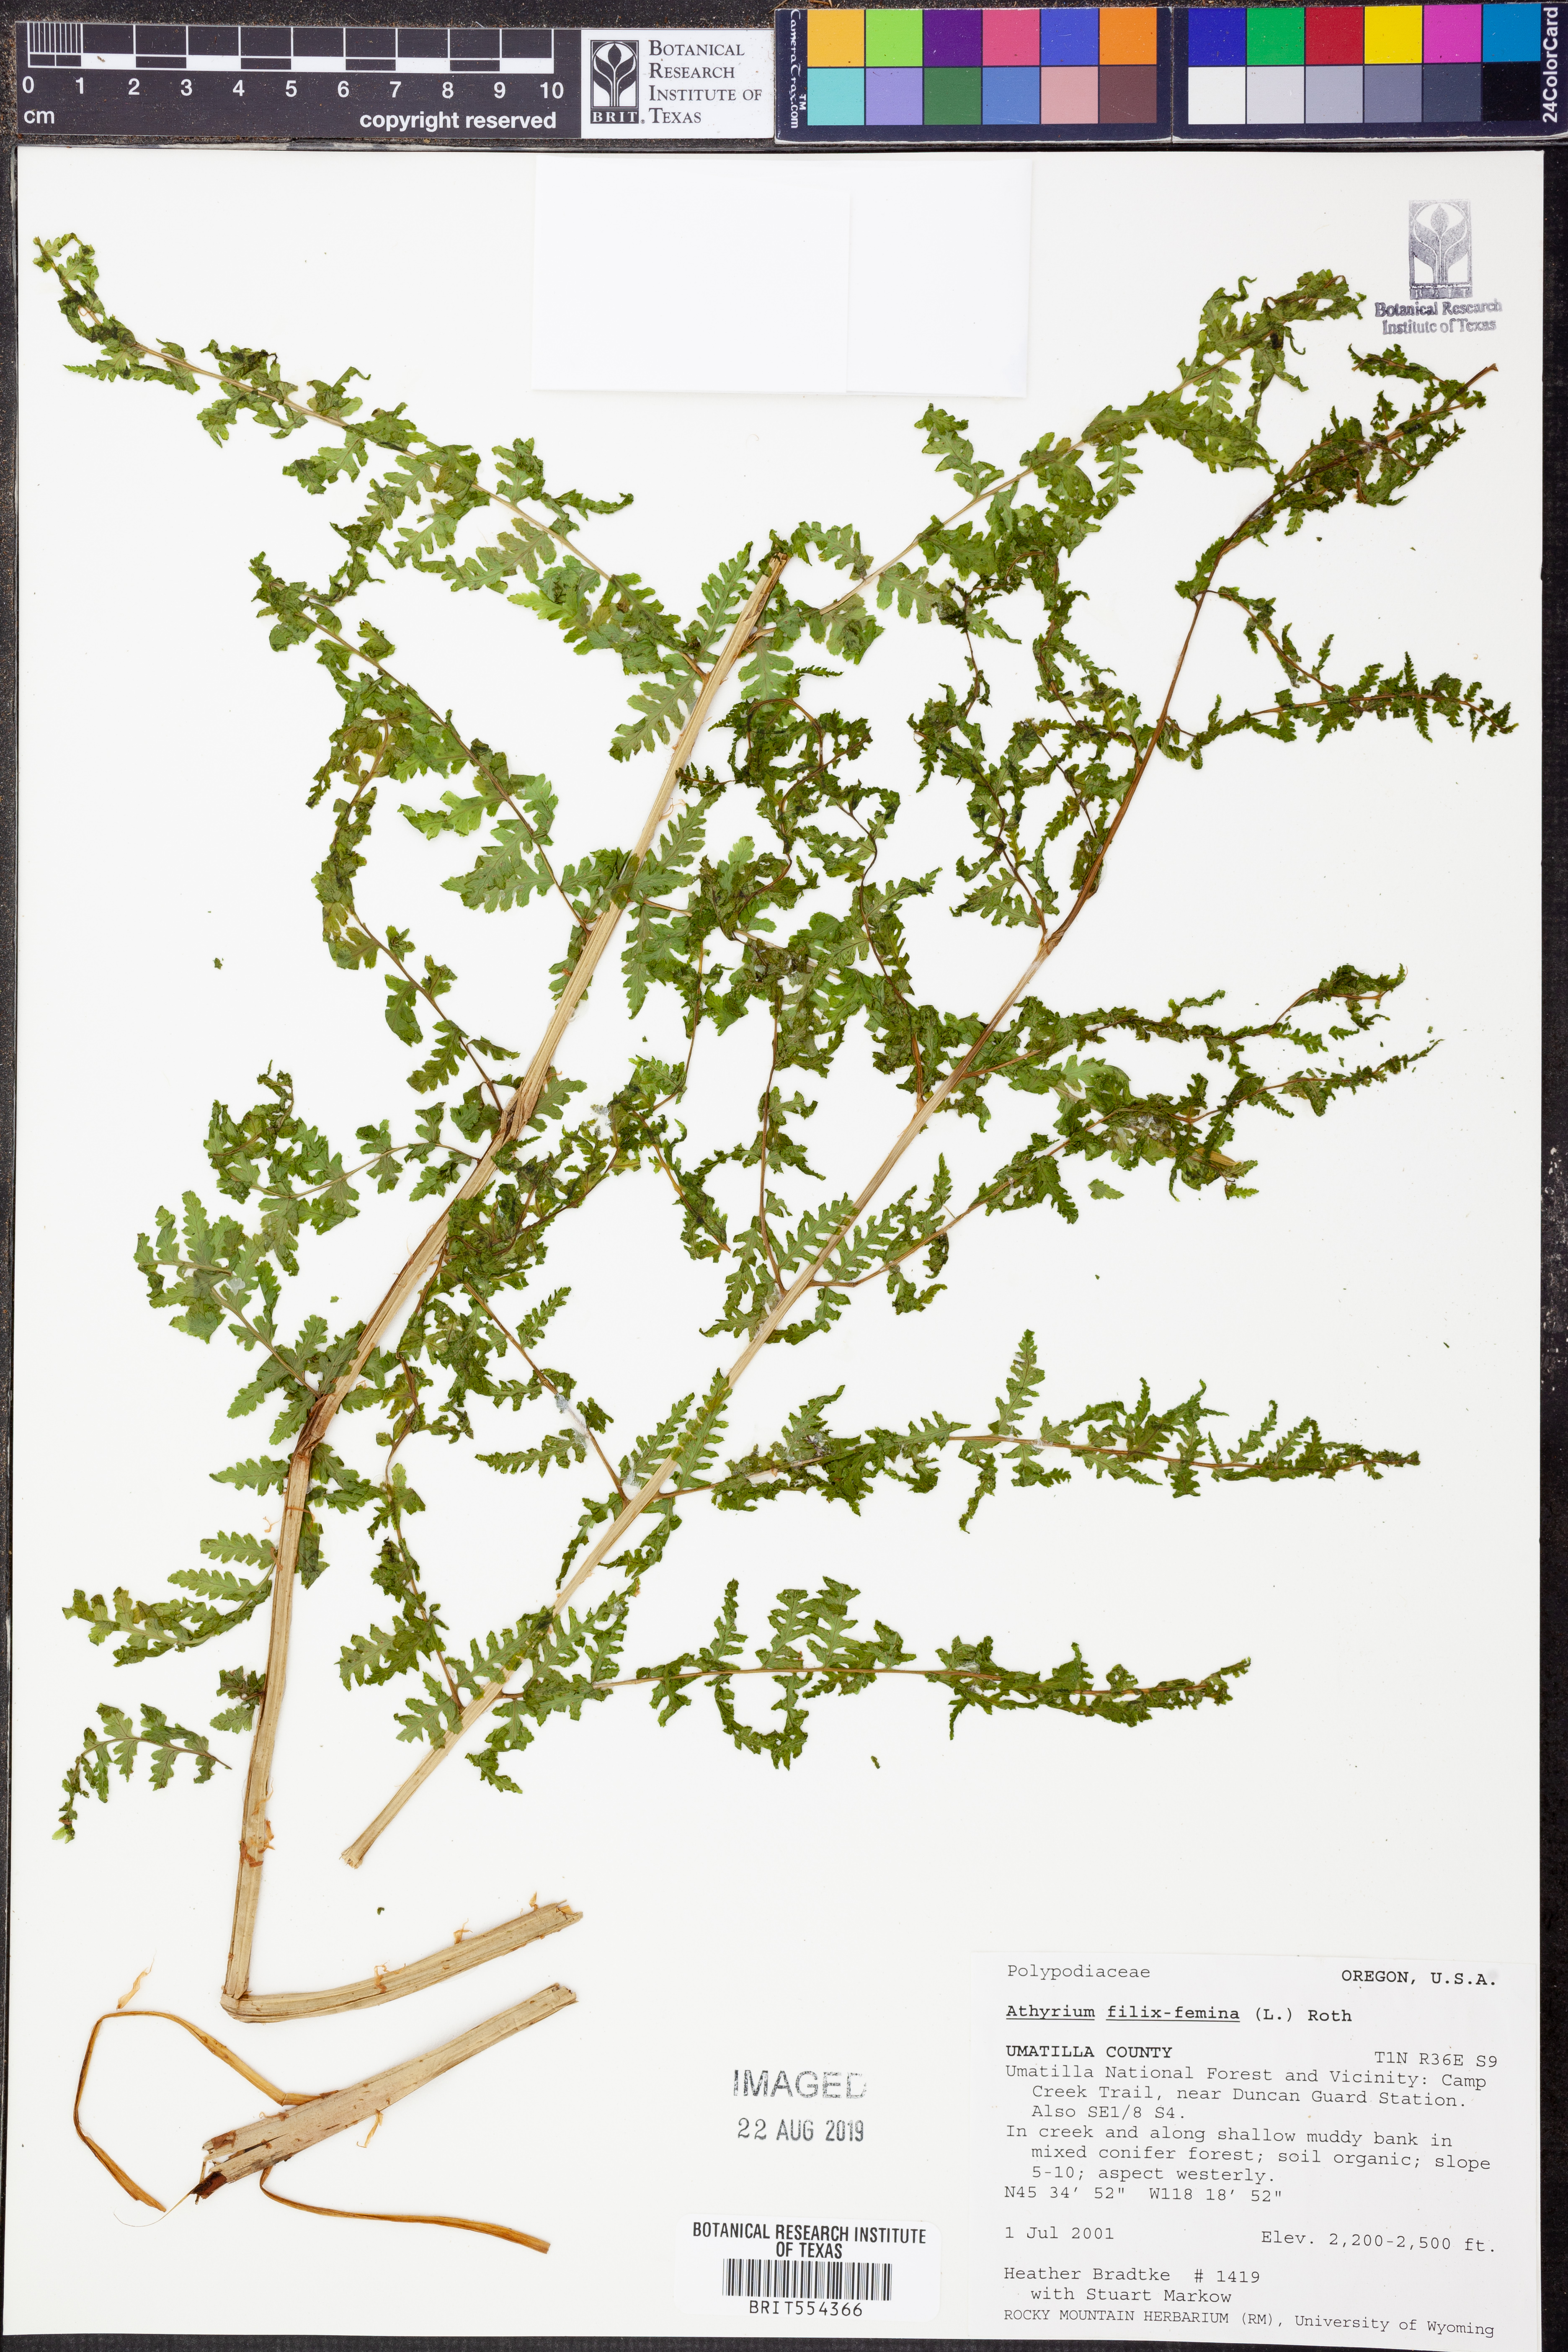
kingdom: Plantae
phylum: Tracheophyta
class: Polypodiopsida
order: Polypodiales
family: Athyriaceae
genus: Athyrium
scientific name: Athyrium filix-femina
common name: Lady fern
